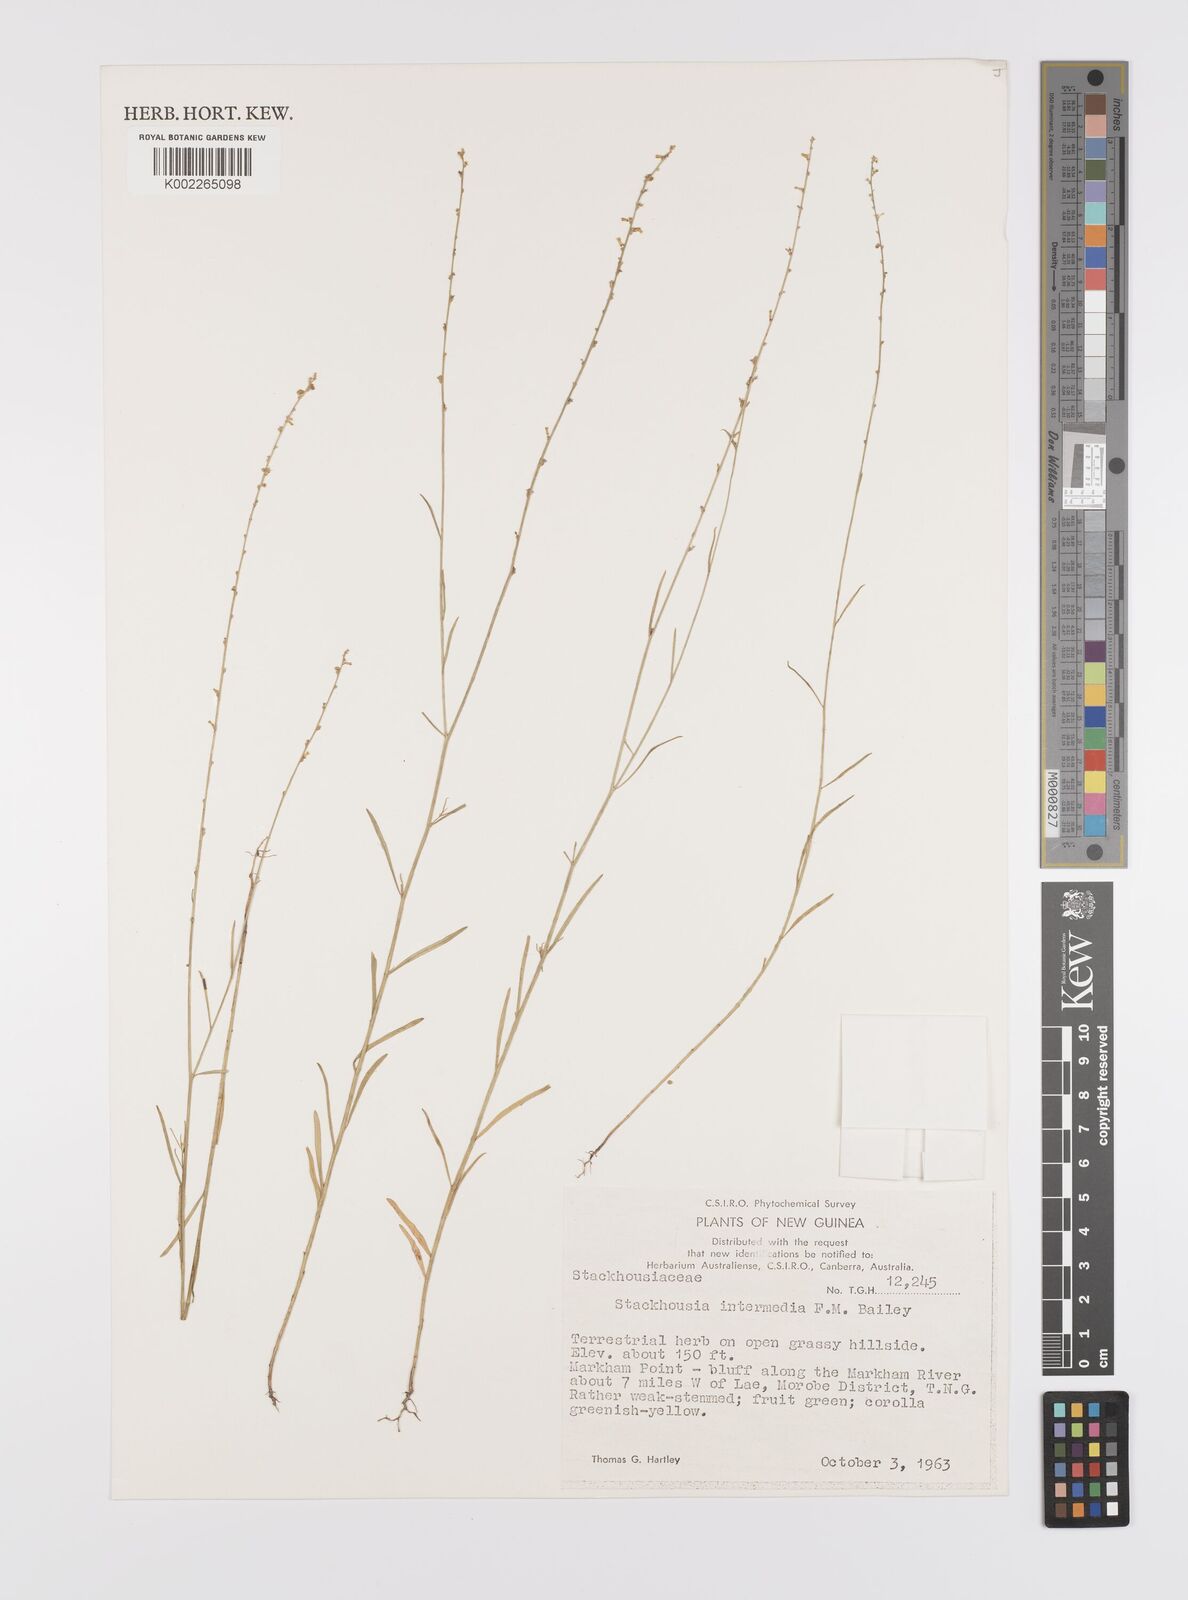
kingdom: Plantae
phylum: Tracheophyta
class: Magnoliopsida
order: Celastrales
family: Celastraceae
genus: Stackhousia
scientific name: Stackhousia intermedia
